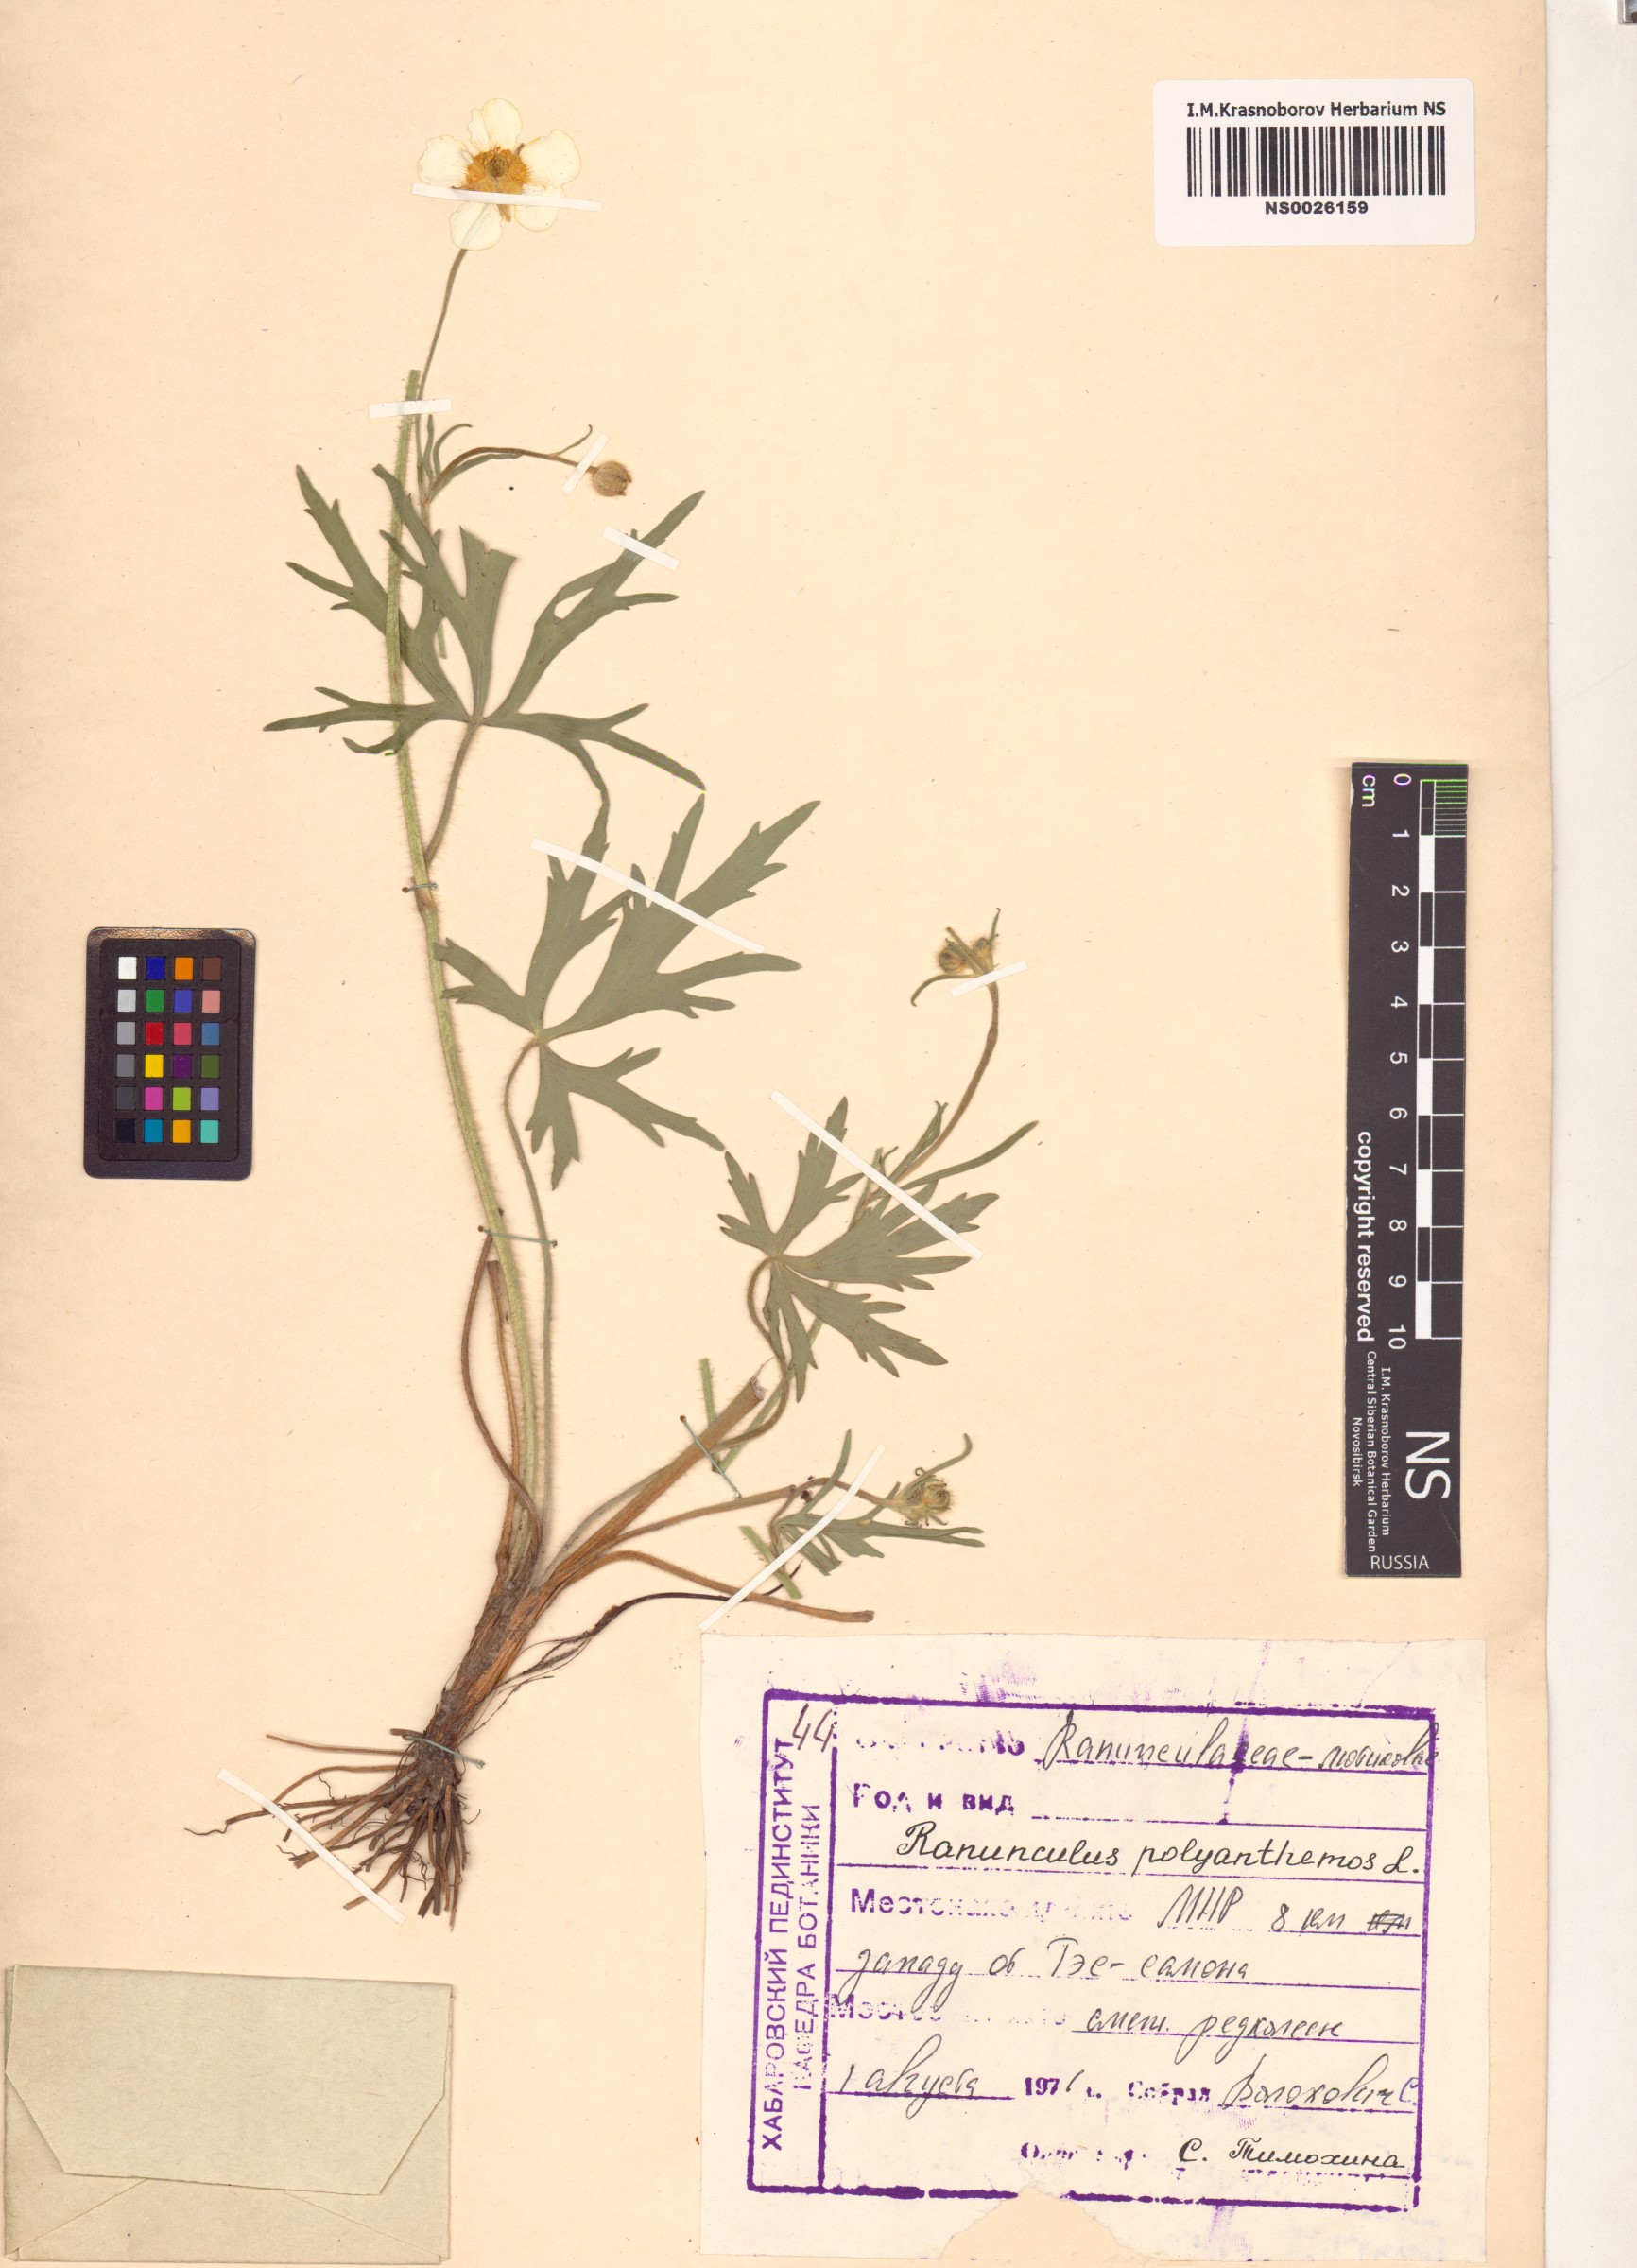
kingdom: Plantae
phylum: Tracheophyta
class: Magnoliopsida
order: Ranunculales
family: Ranunculaceae
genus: Ranunculus
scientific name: Ranunculus polyanthemos
